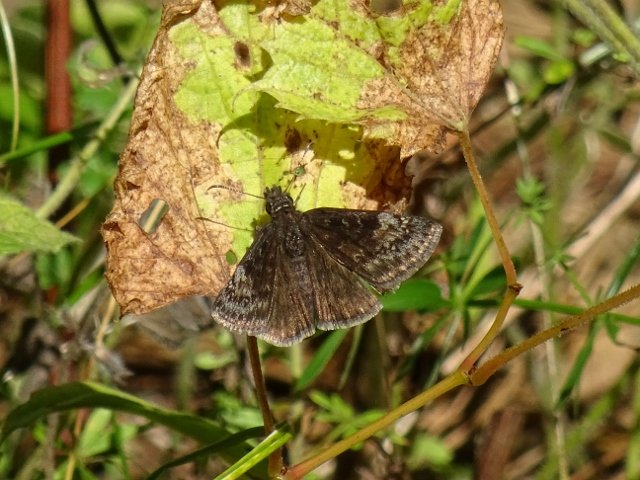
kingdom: Animalia
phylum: Arthropoda
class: Insecta
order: Lepidoptera
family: Hesperiidae
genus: Gesta
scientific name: Gesta
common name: Wild Indigo Duskywing
